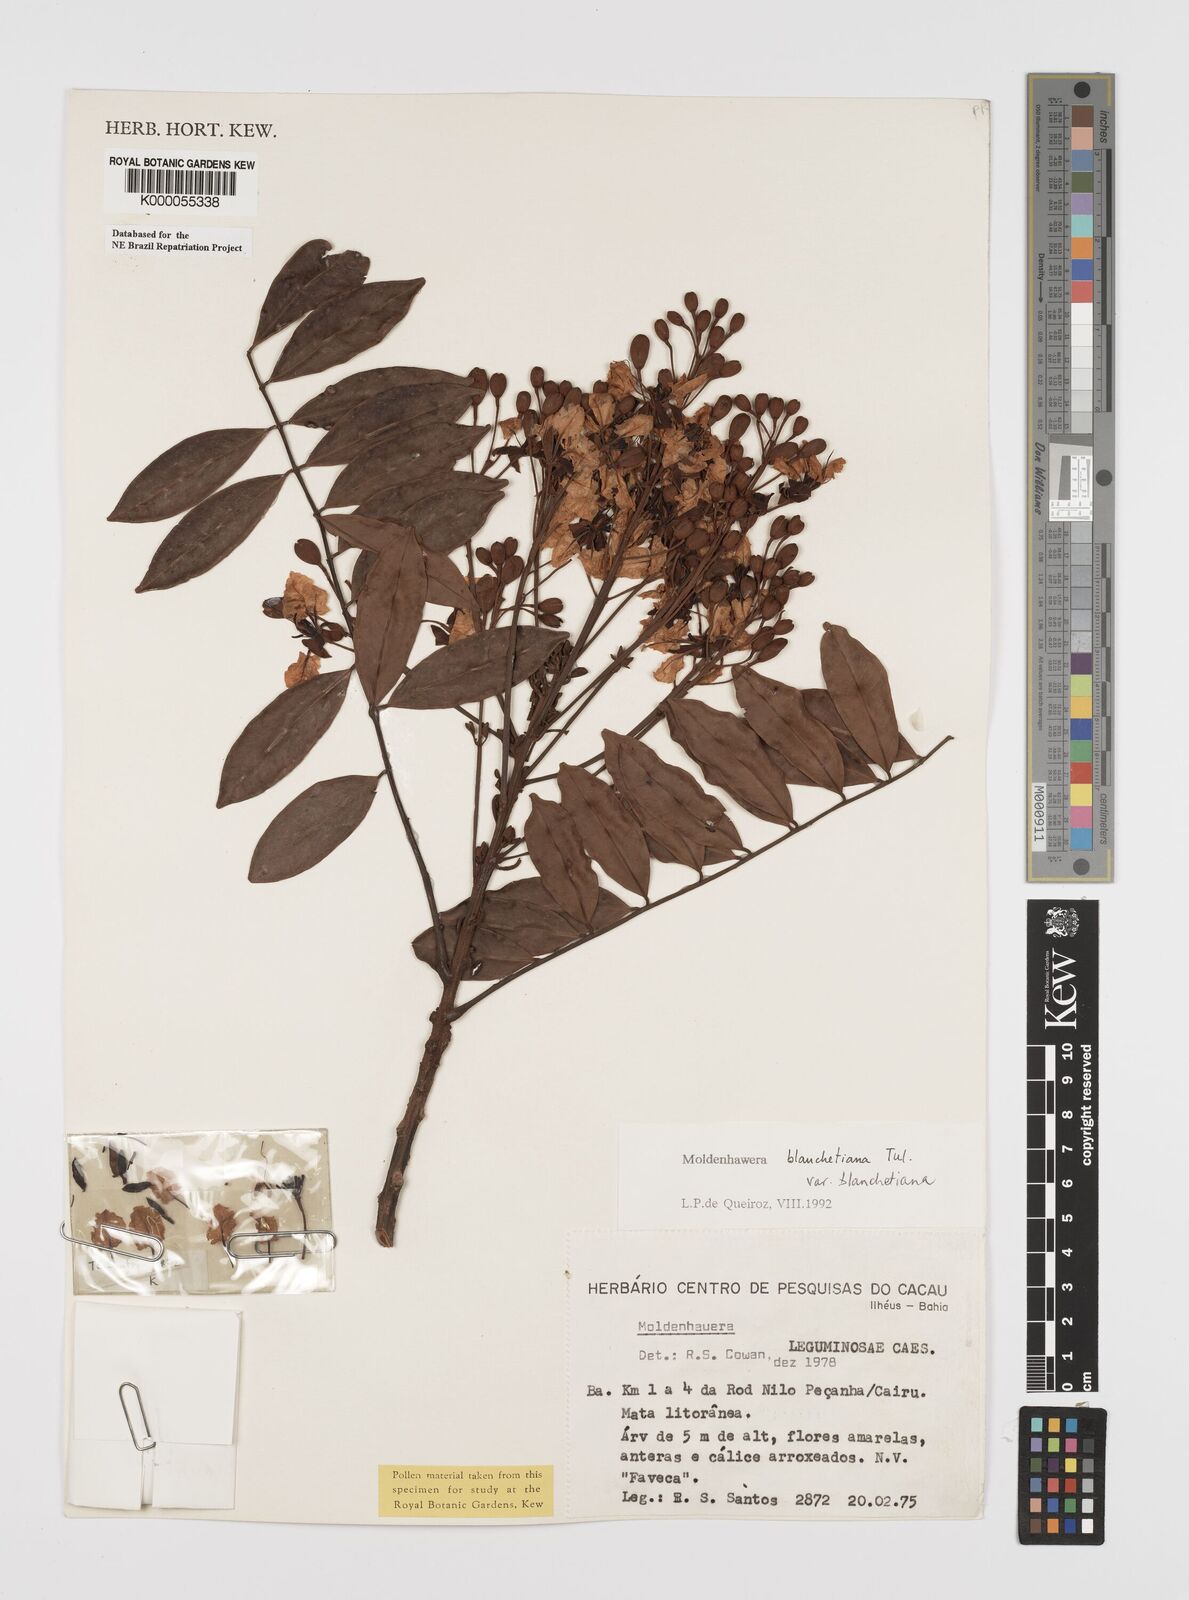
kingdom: Plantae
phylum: Tracheophyta
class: Magnoliopsida
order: Fabales
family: Fabaceae
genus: Moldenhawera
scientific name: Moldenhawera blanchetiana
